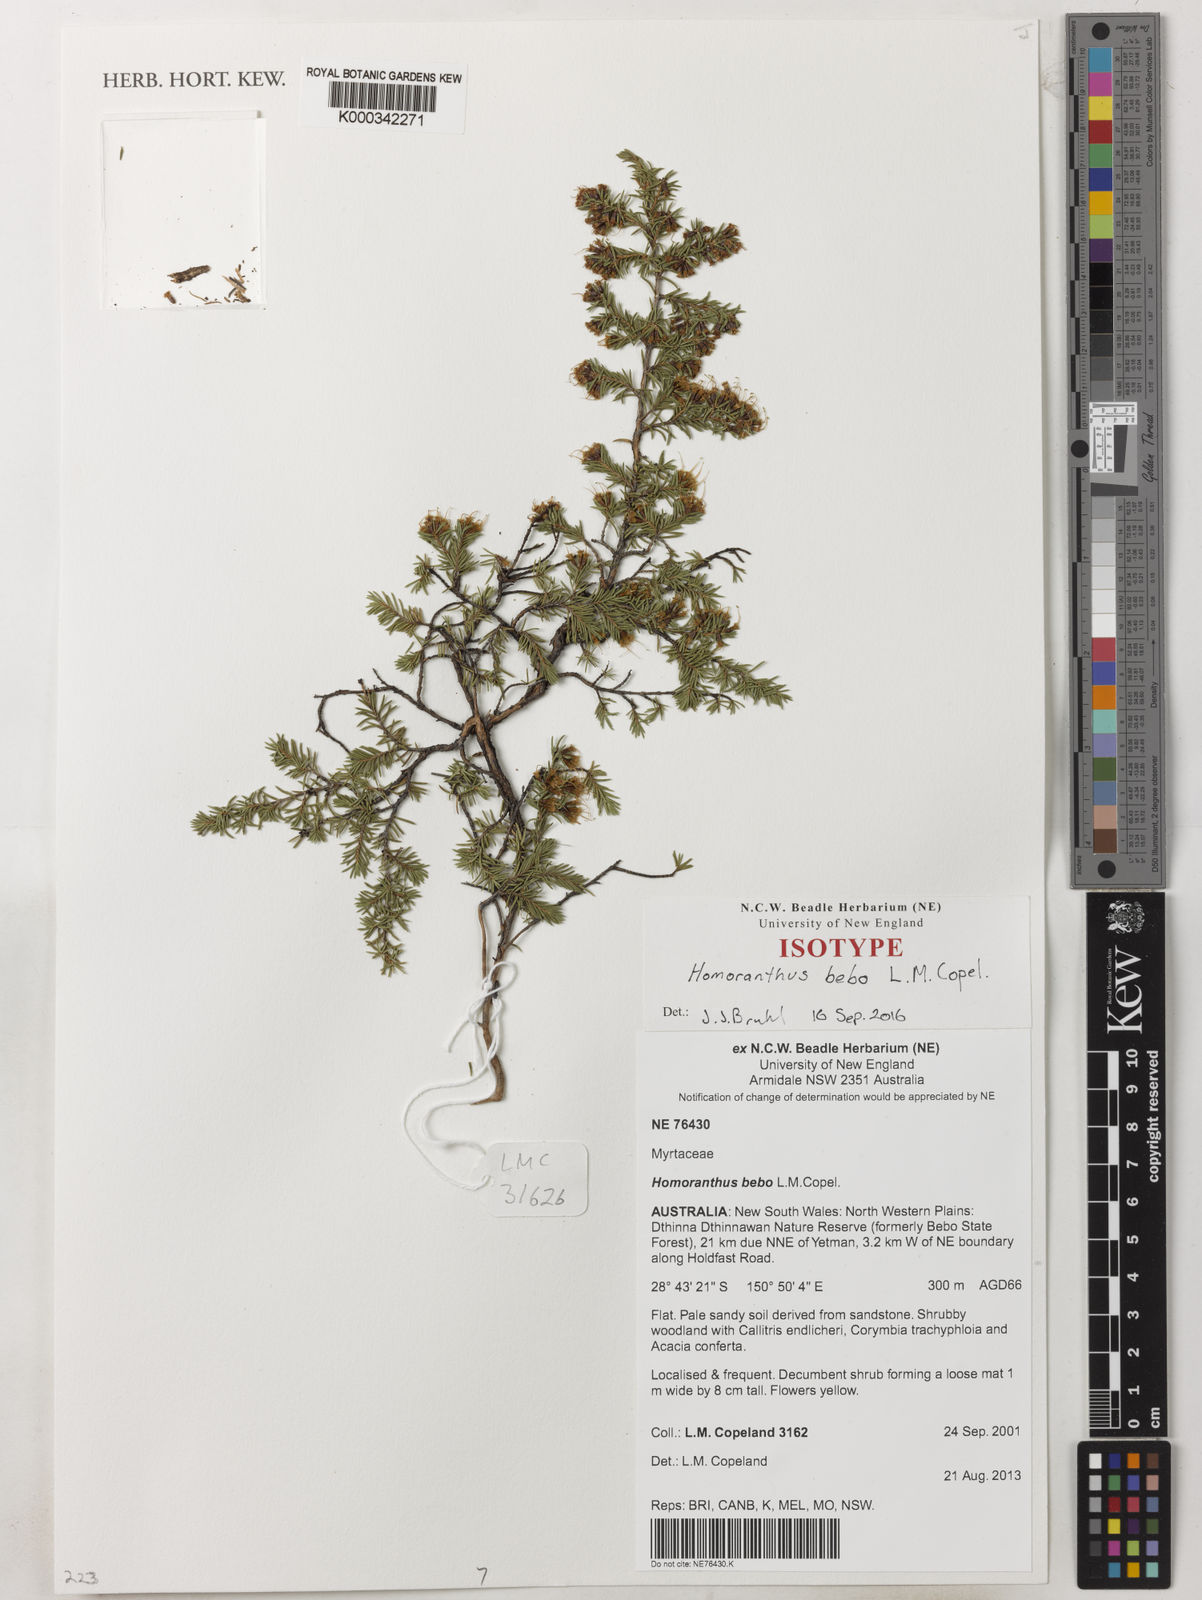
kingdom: Plantae
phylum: Tracheophyta
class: Magnoliopsida
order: Myrtales
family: Myrtaceae
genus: Homoranthus
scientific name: Homoranthus bebo
